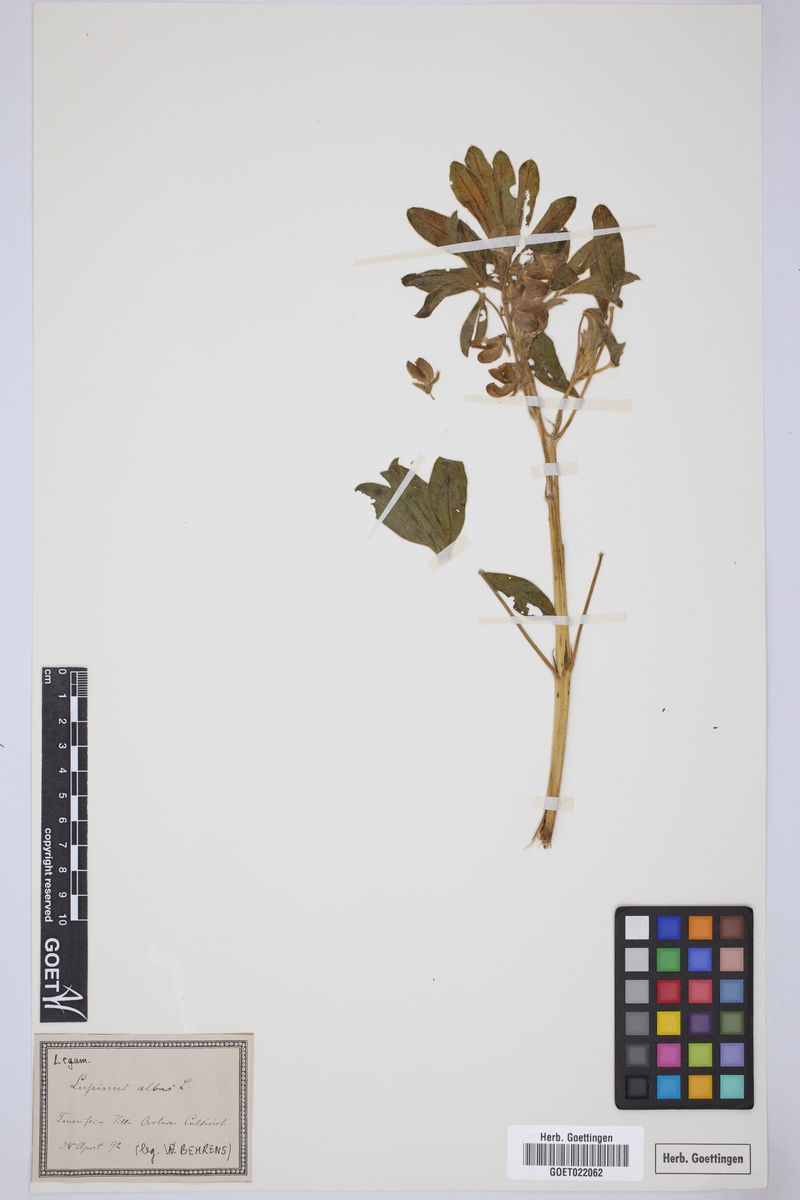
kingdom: Plantae
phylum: Tracheophyta
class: Magnoliopsida
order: Fabales
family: Fabaceae
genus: Lupinus
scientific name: Lupinus albus
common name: White lupin
